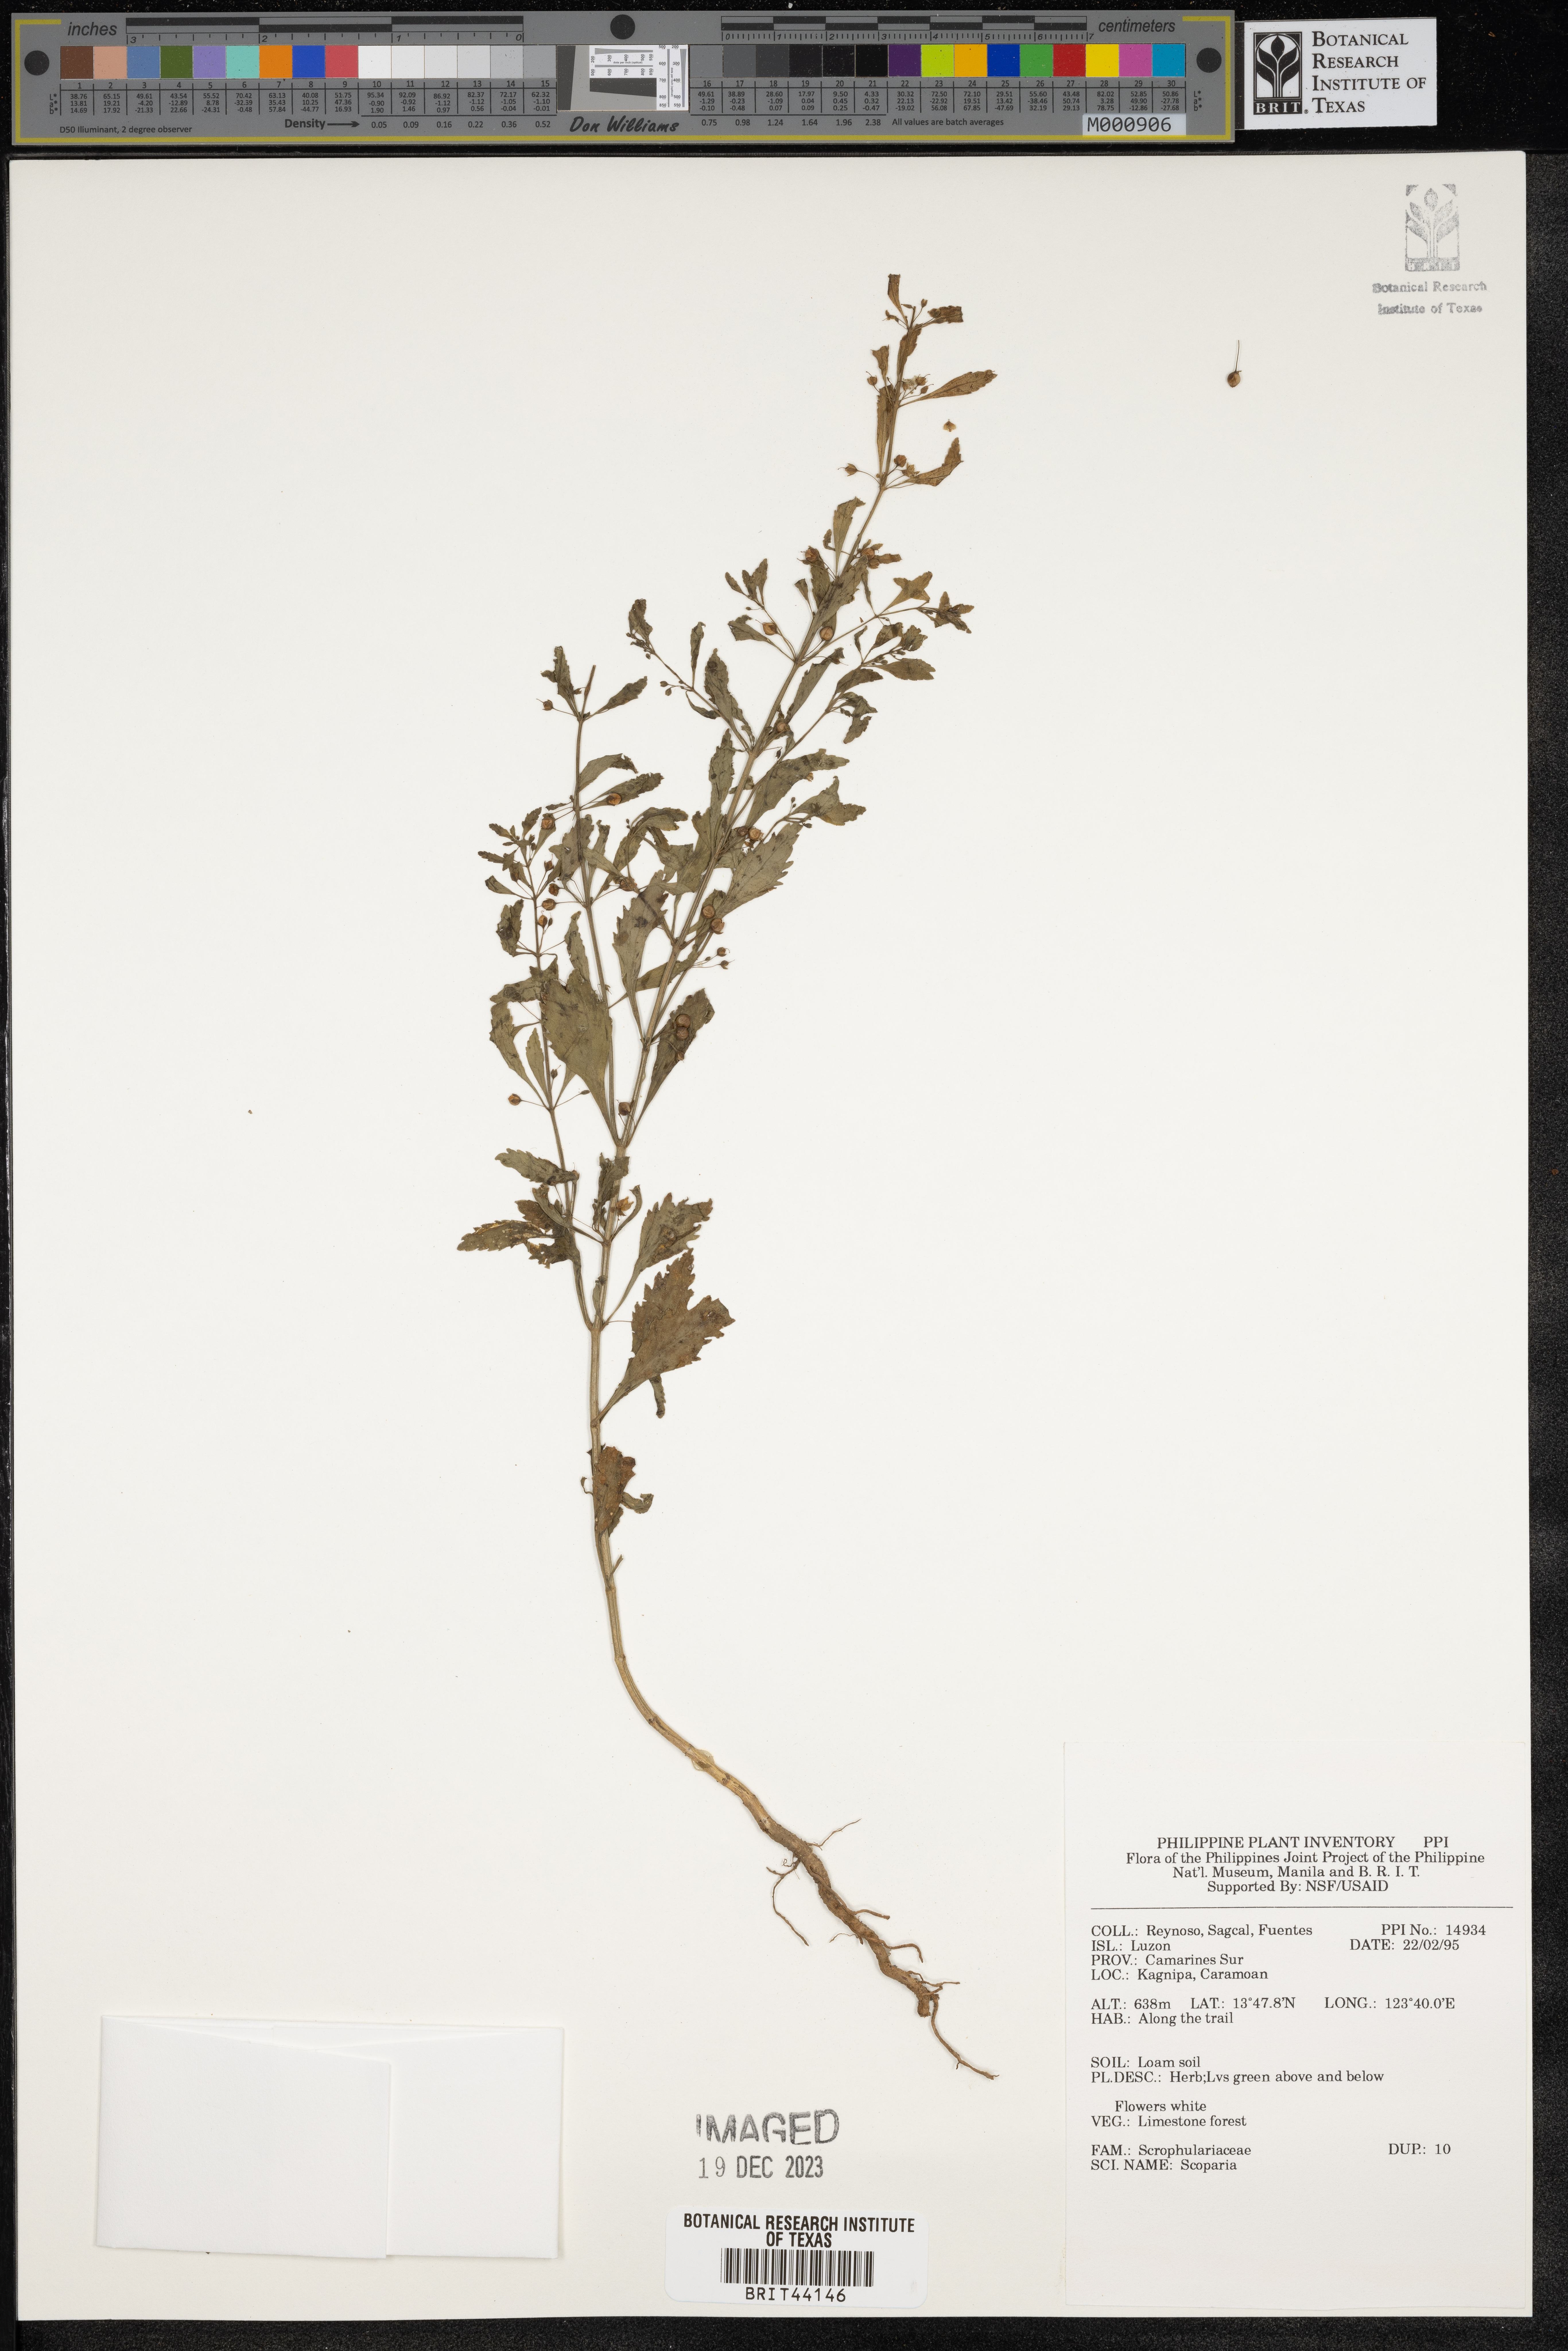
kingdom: Plantae
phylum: Tracheophyta
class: Magnoliopsida
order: Lamiales
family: Plantaginaceae
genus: Scoparia
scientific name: Scoparia
